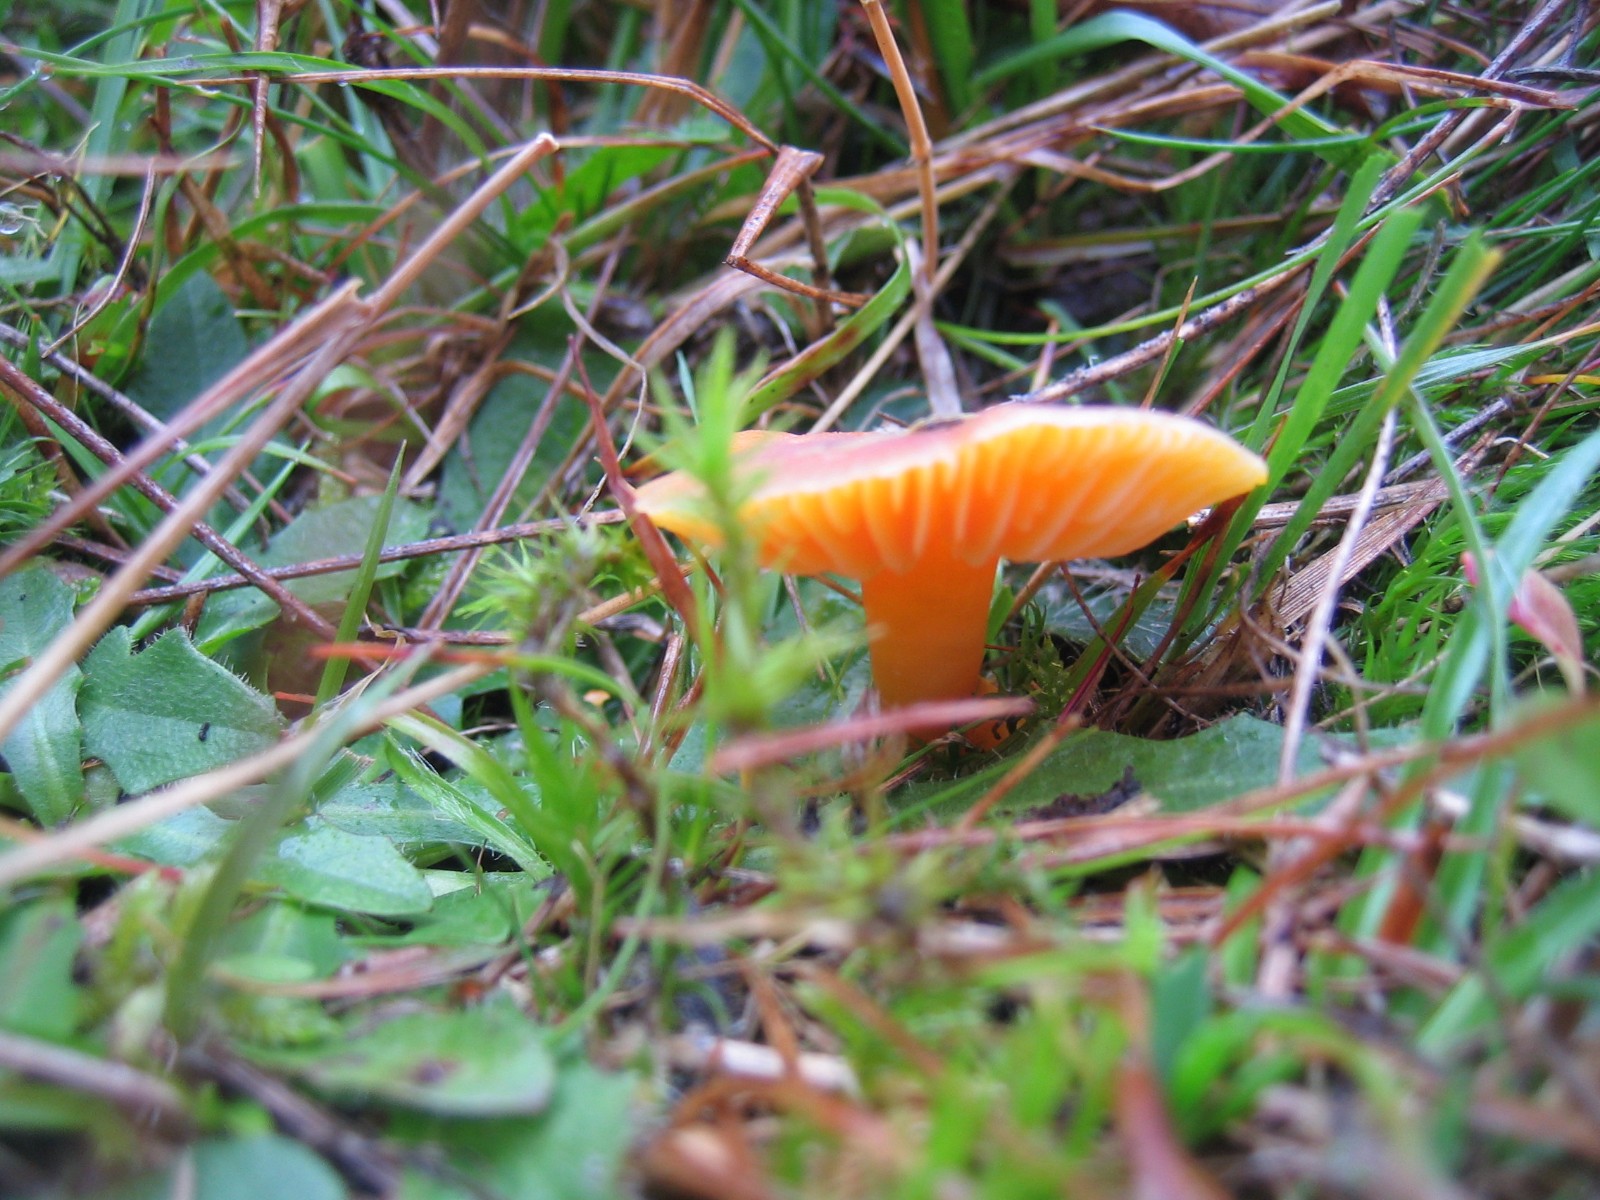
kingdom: Fungi
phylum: Basidiomycota
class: Agaricomycetes
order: Agaricales
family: Hygrophoraceae
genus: Hygrocybe
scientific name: Hygrocybe miniata
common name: mønje-vokshat
